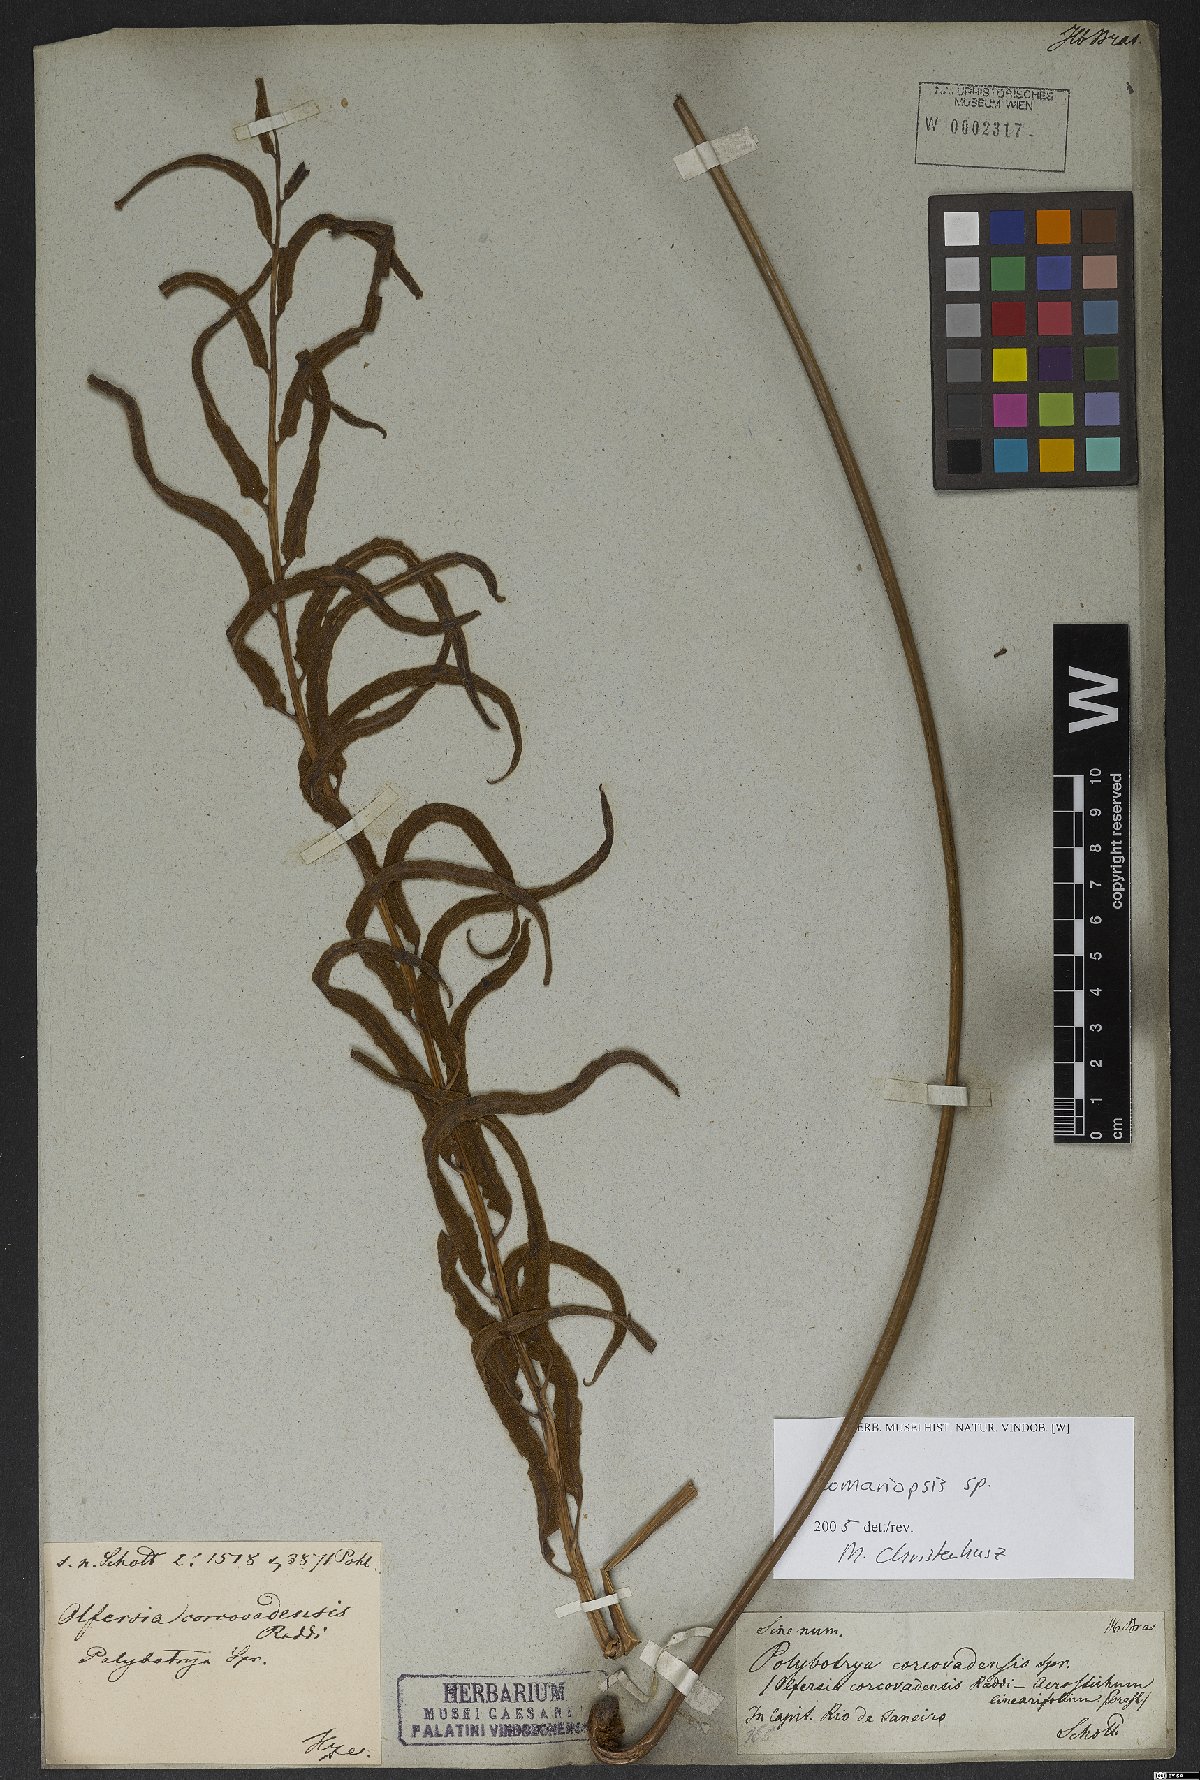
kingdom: Plantae
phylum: Tracheophyta
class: Polypodiopsida
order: Polypodiales
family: Lomariopsidaceae
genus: Lomariopsis
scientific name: Lomariopsis
